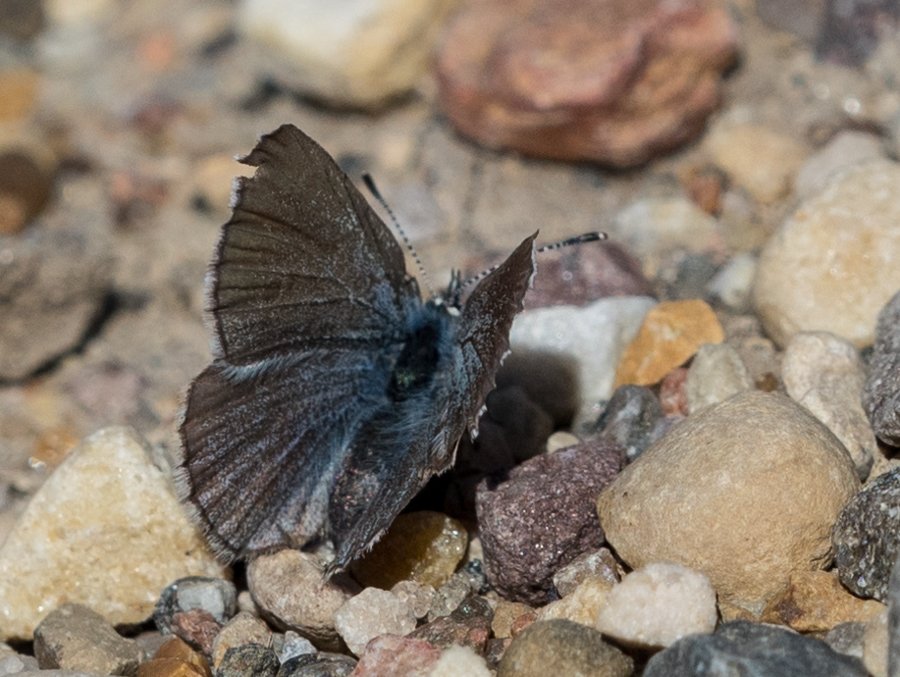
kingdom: Animalia
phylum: Arthropoda
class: Insecta
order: Lepidoptera
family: Lycaenidae
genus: Glaucopsyche
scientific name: Glaucopsyche lygdamus
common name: Silvery Blue
